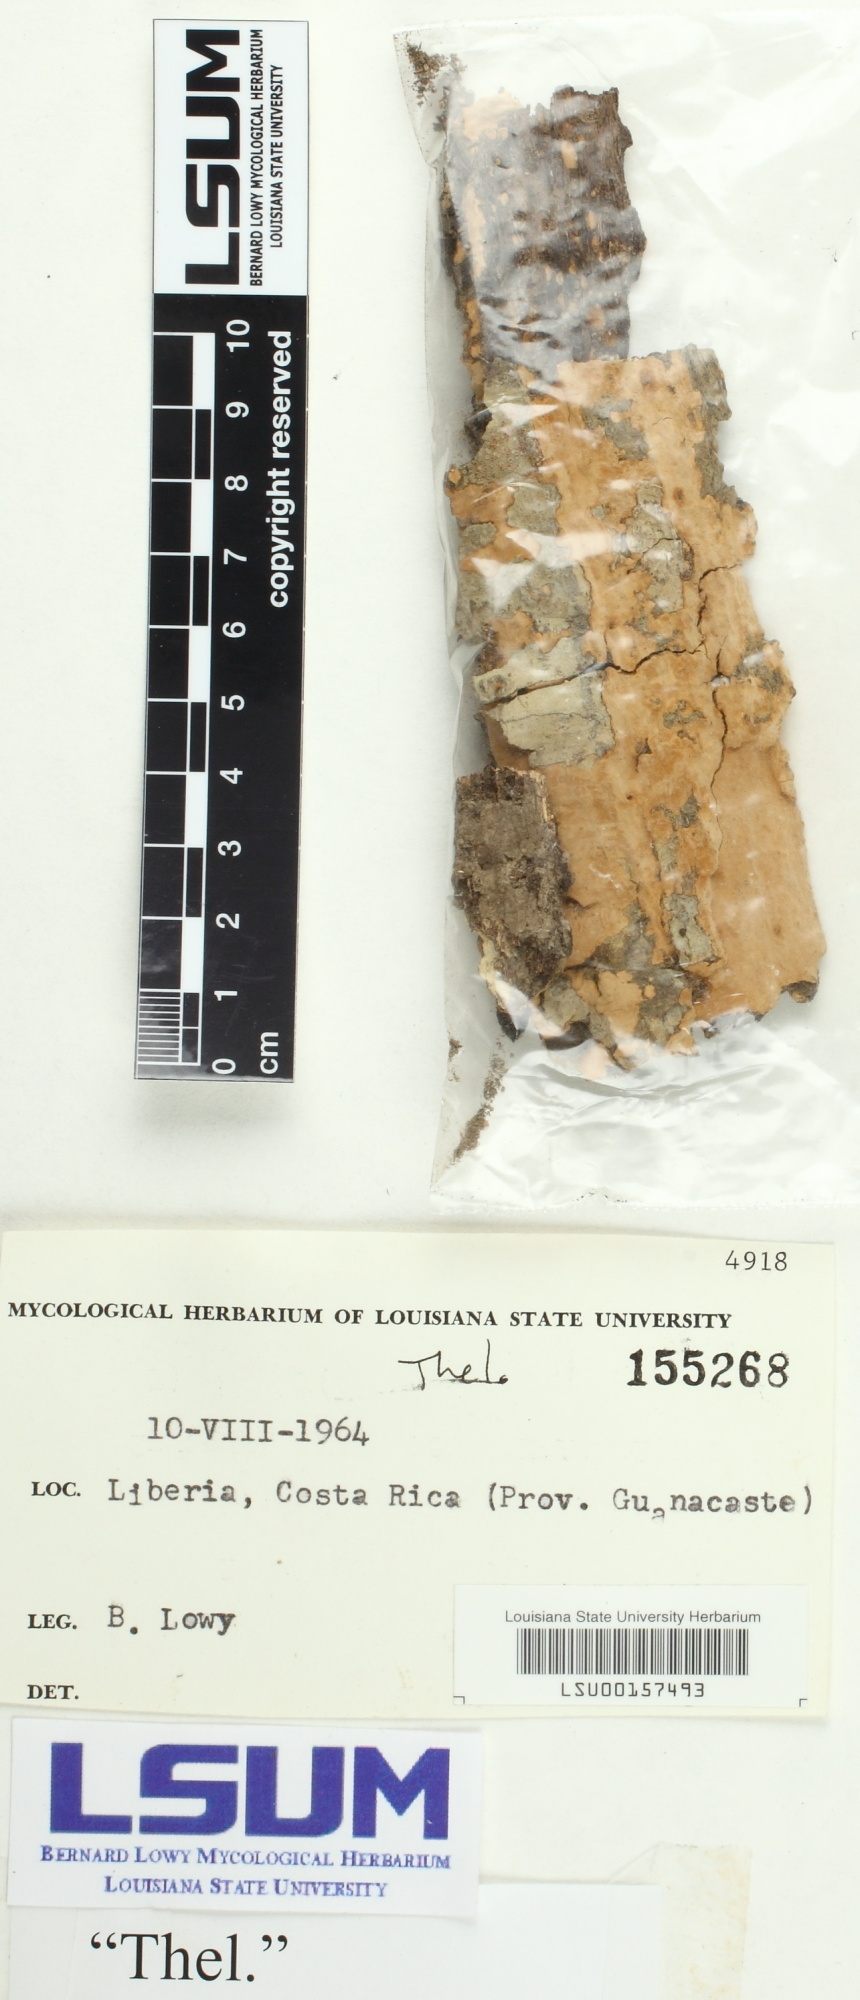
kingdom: Fungi
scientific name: Fungi
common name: Fungi
